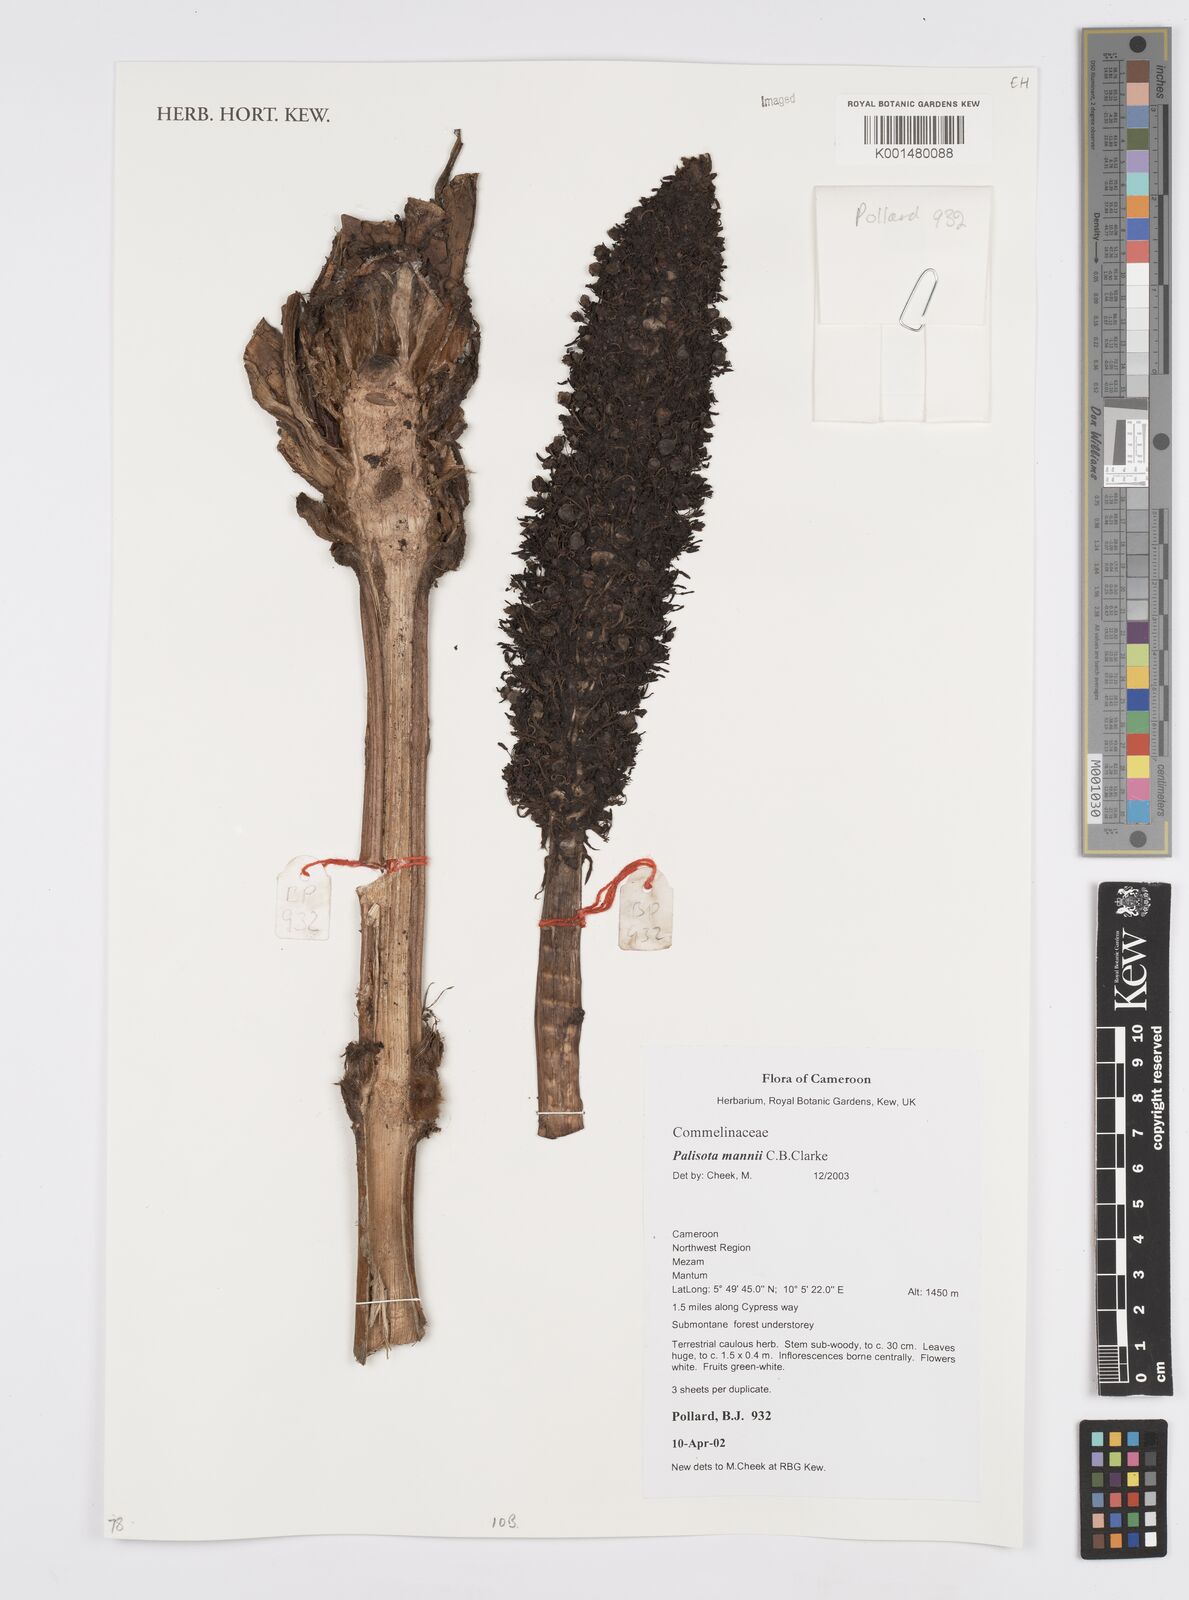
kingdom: Plantae
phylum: Tracheophyta
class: Liliopsida
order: Commelinales
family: Commelinaceae
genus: Palisota
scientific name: Palisota mannii
